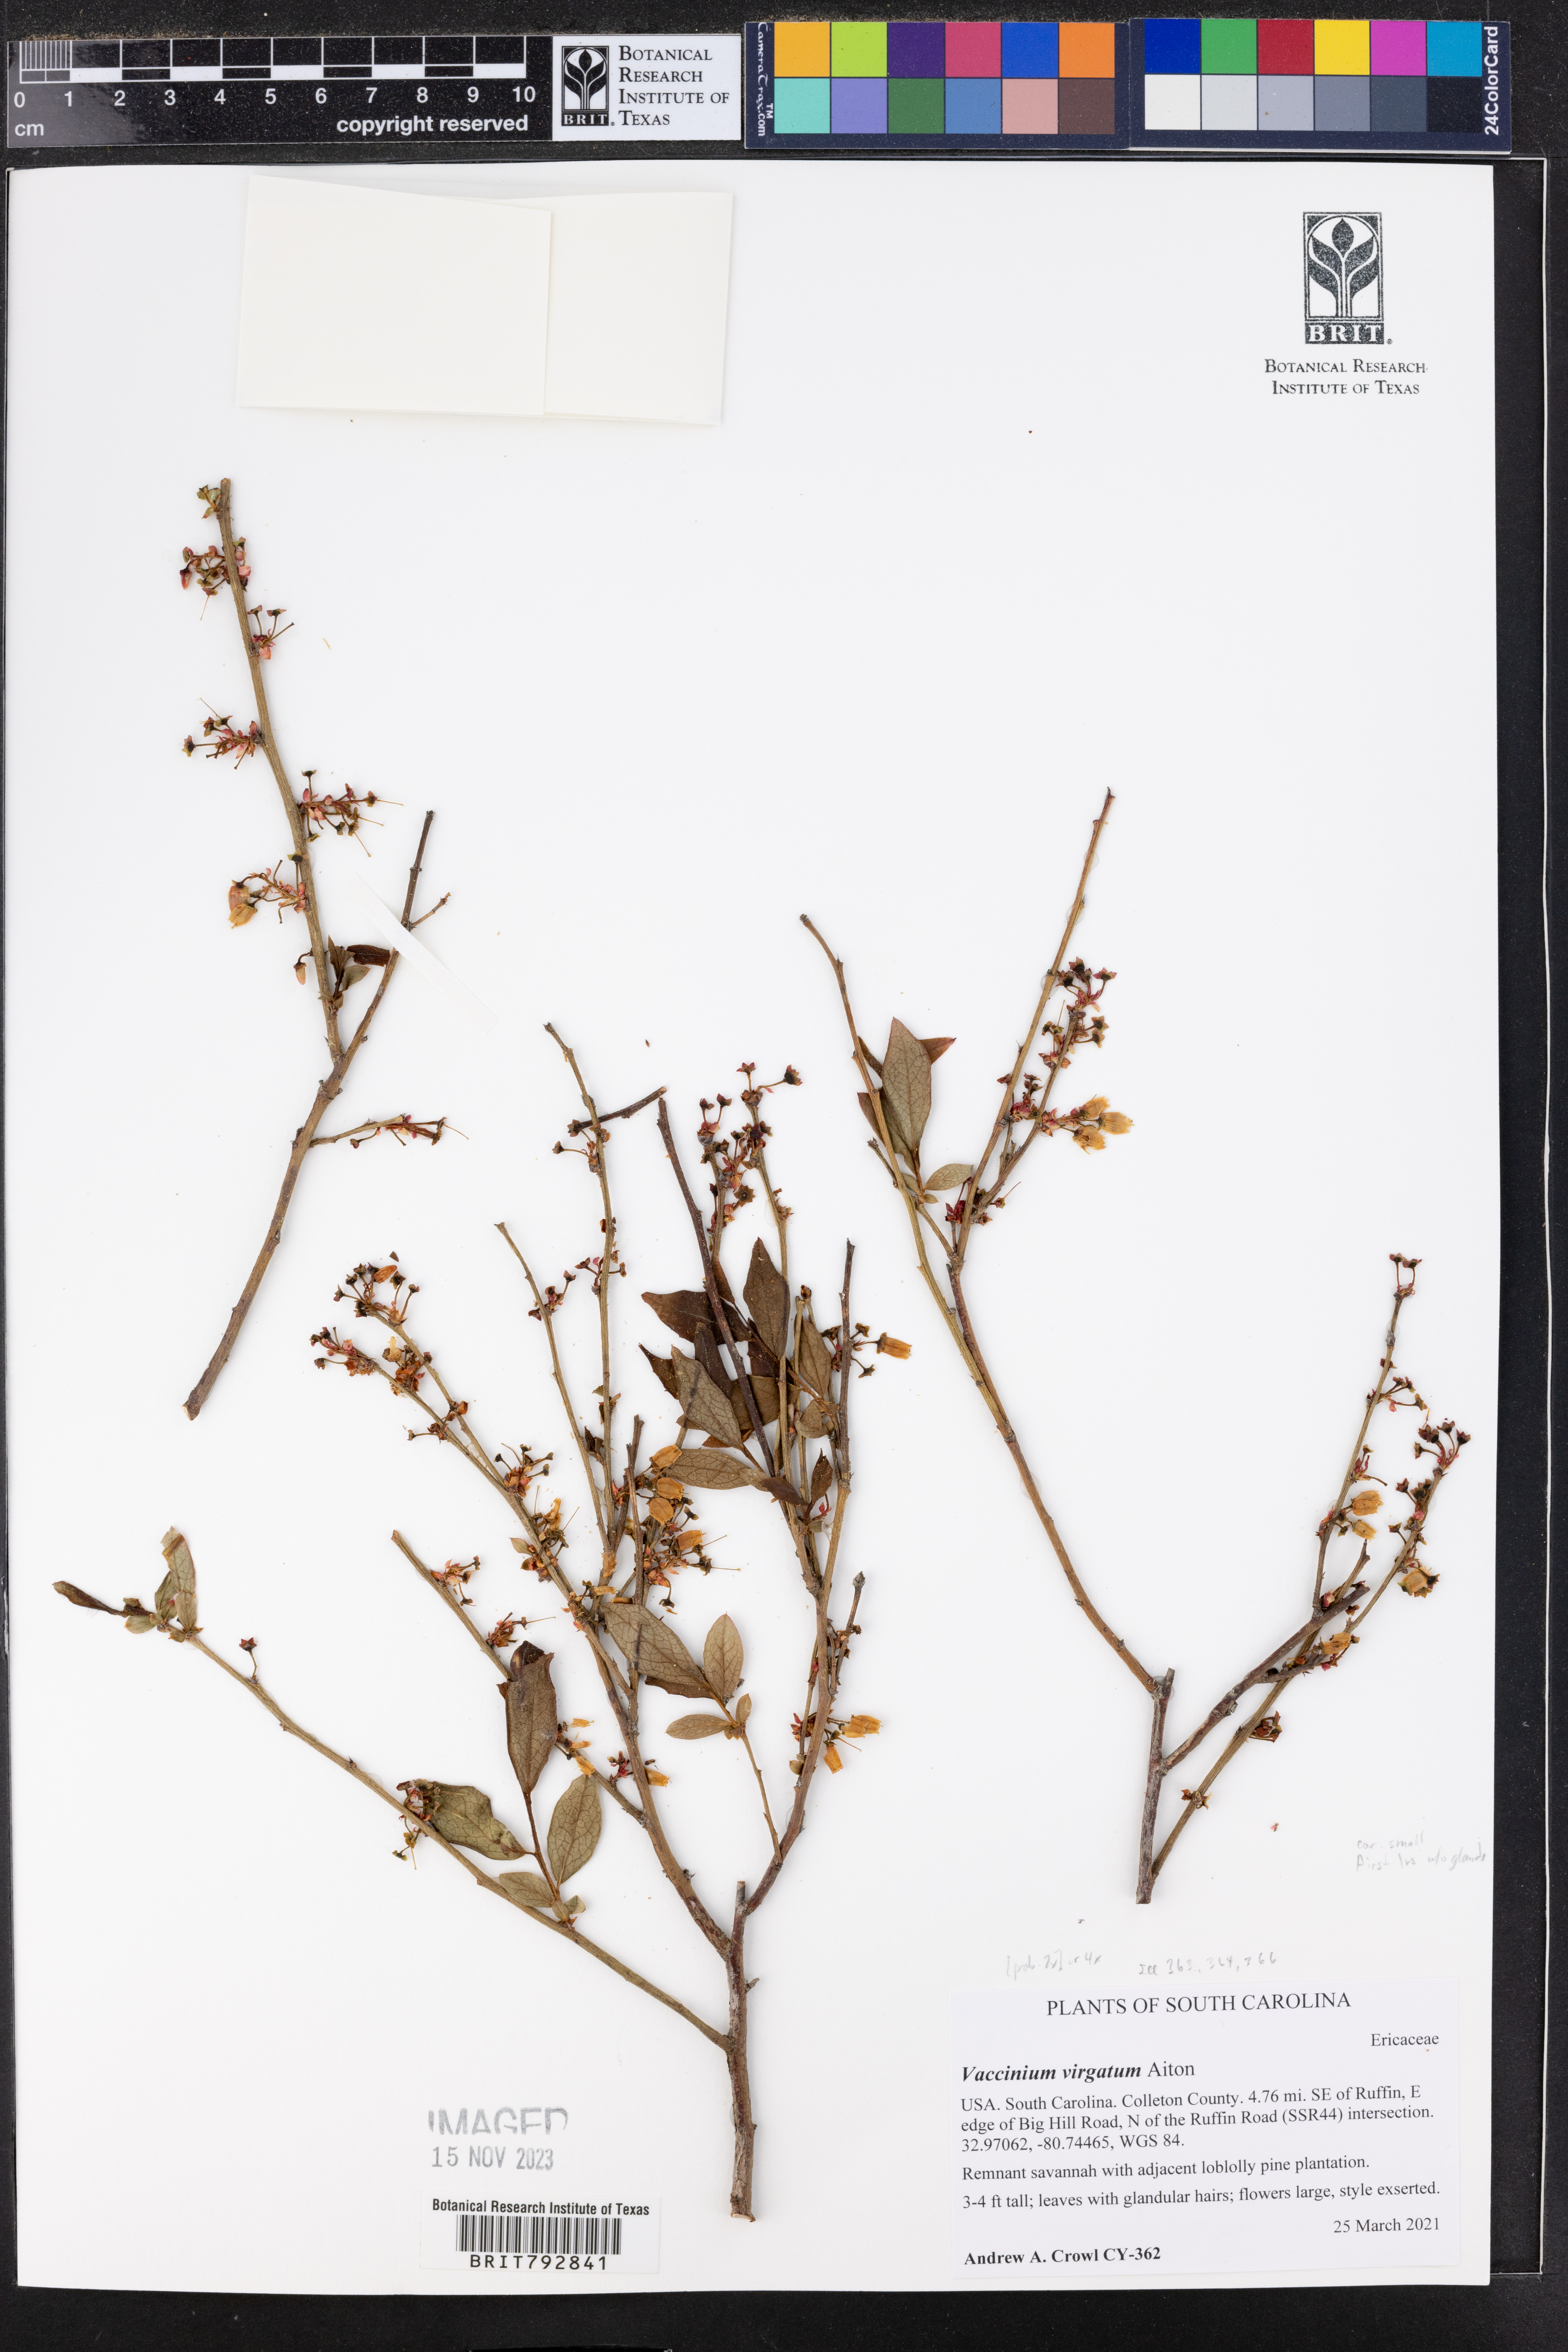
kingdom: Plantae
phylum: Tracheophyta
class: Magnoliopsida
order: Ericales
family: Ericaceae
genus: Vaccinium
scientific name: Vaccinium corymbosum
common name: Blueberry
